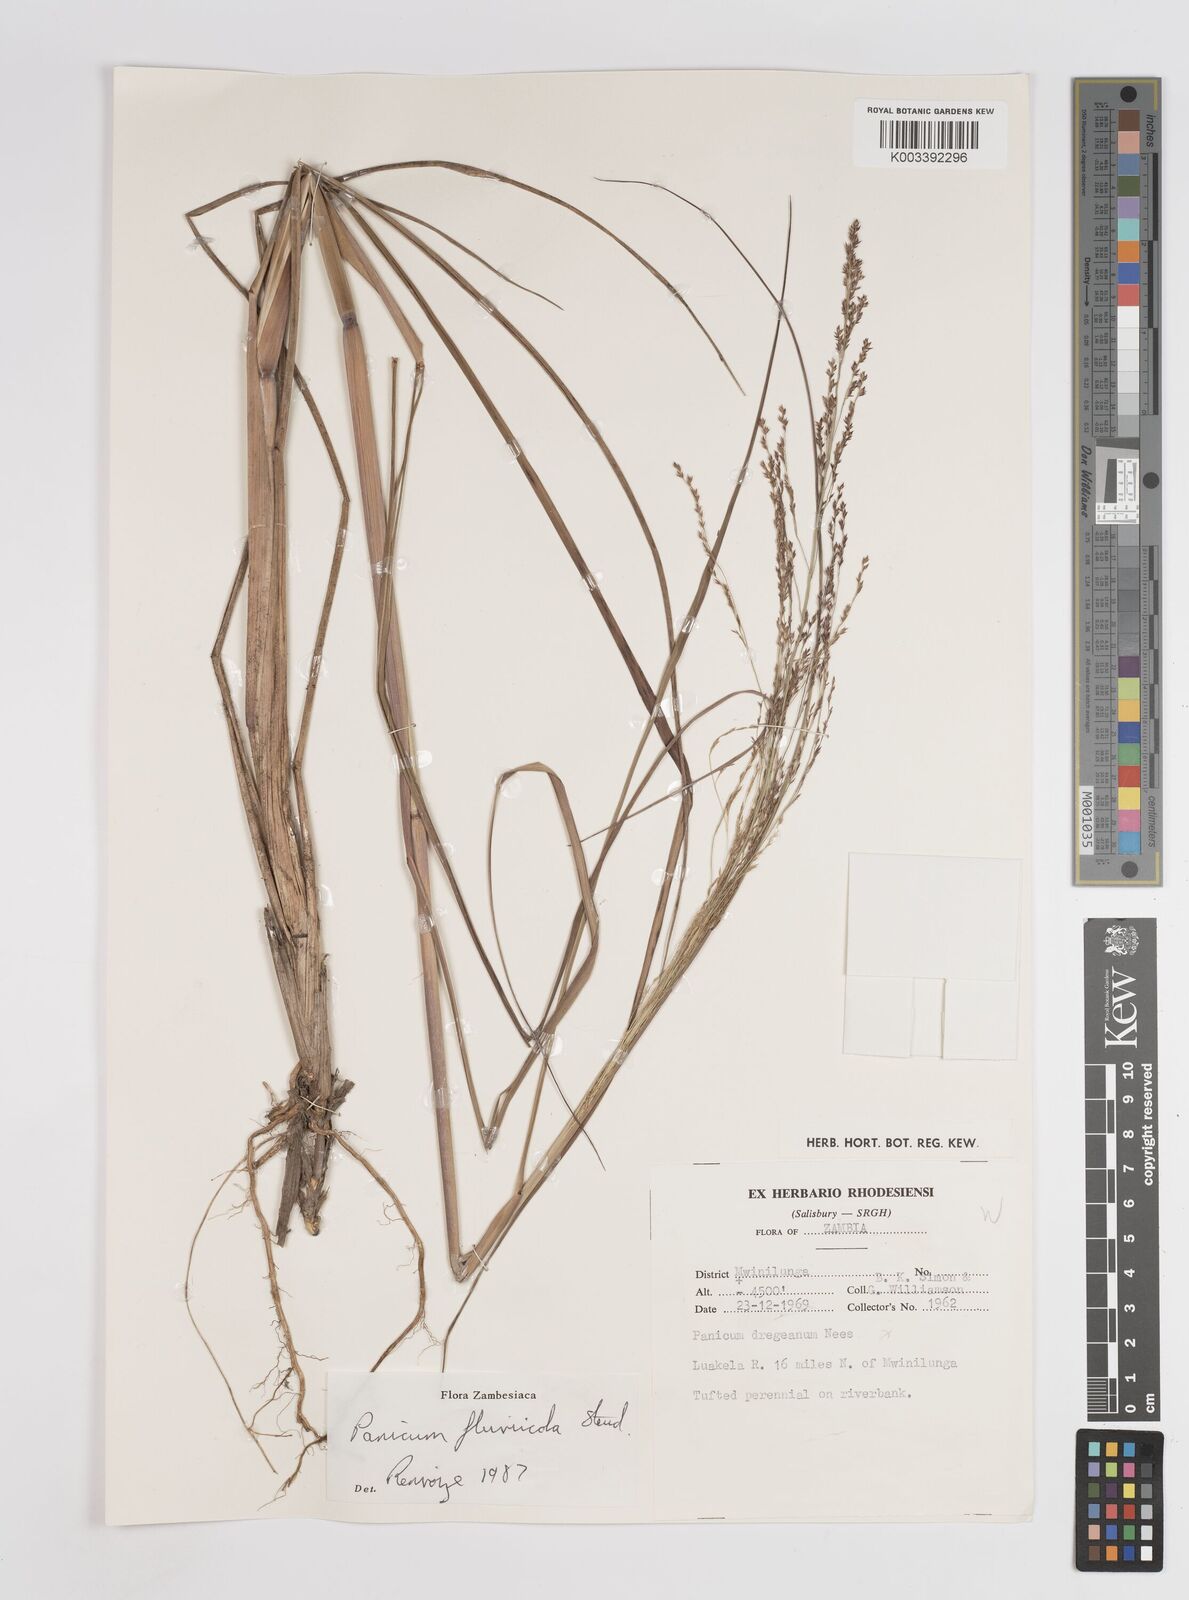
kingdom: Plantae
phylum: Tracheophyta
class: Liliopsida
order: Poales
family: Poaceae
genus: Panicum
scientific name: Panicum fluviicola
